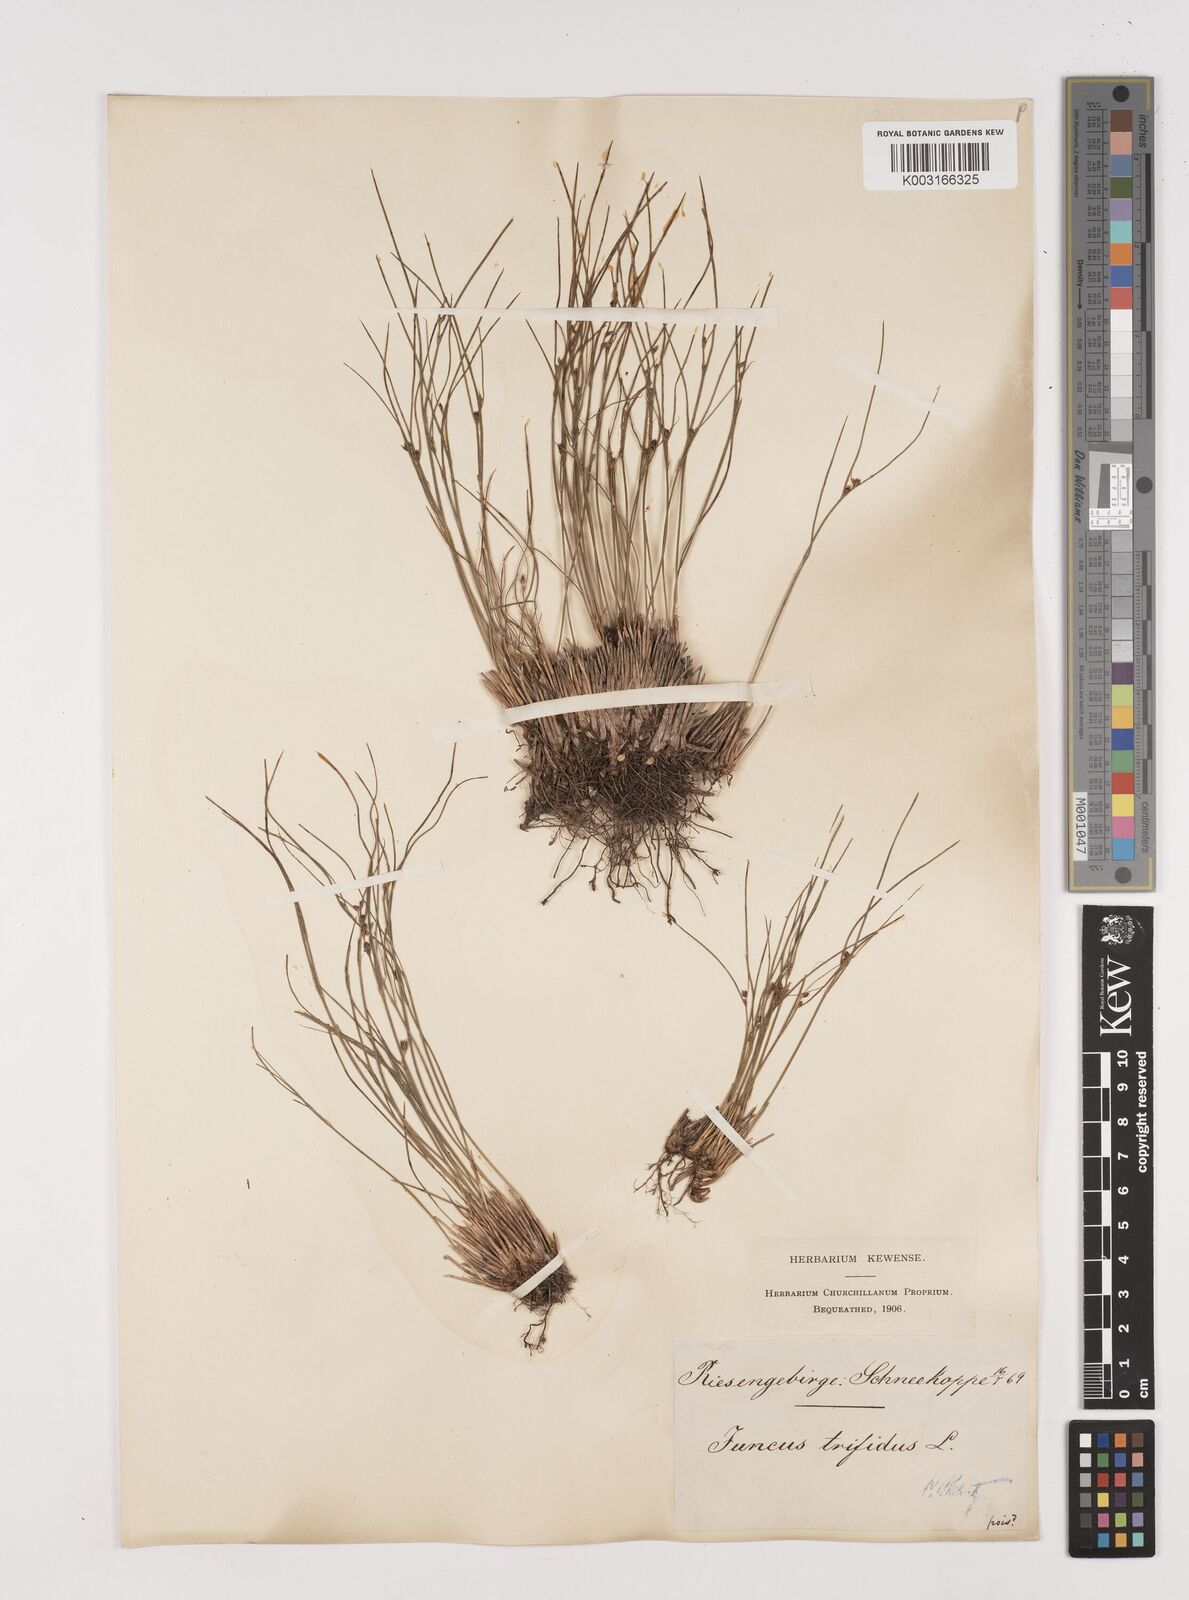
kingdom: Plantae
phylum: Tracheophyta
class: Liliopsida
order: Poales
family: Juncaceae
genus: Oreojuncus
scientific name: Oreojuncus trifidus
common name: Highland rush
